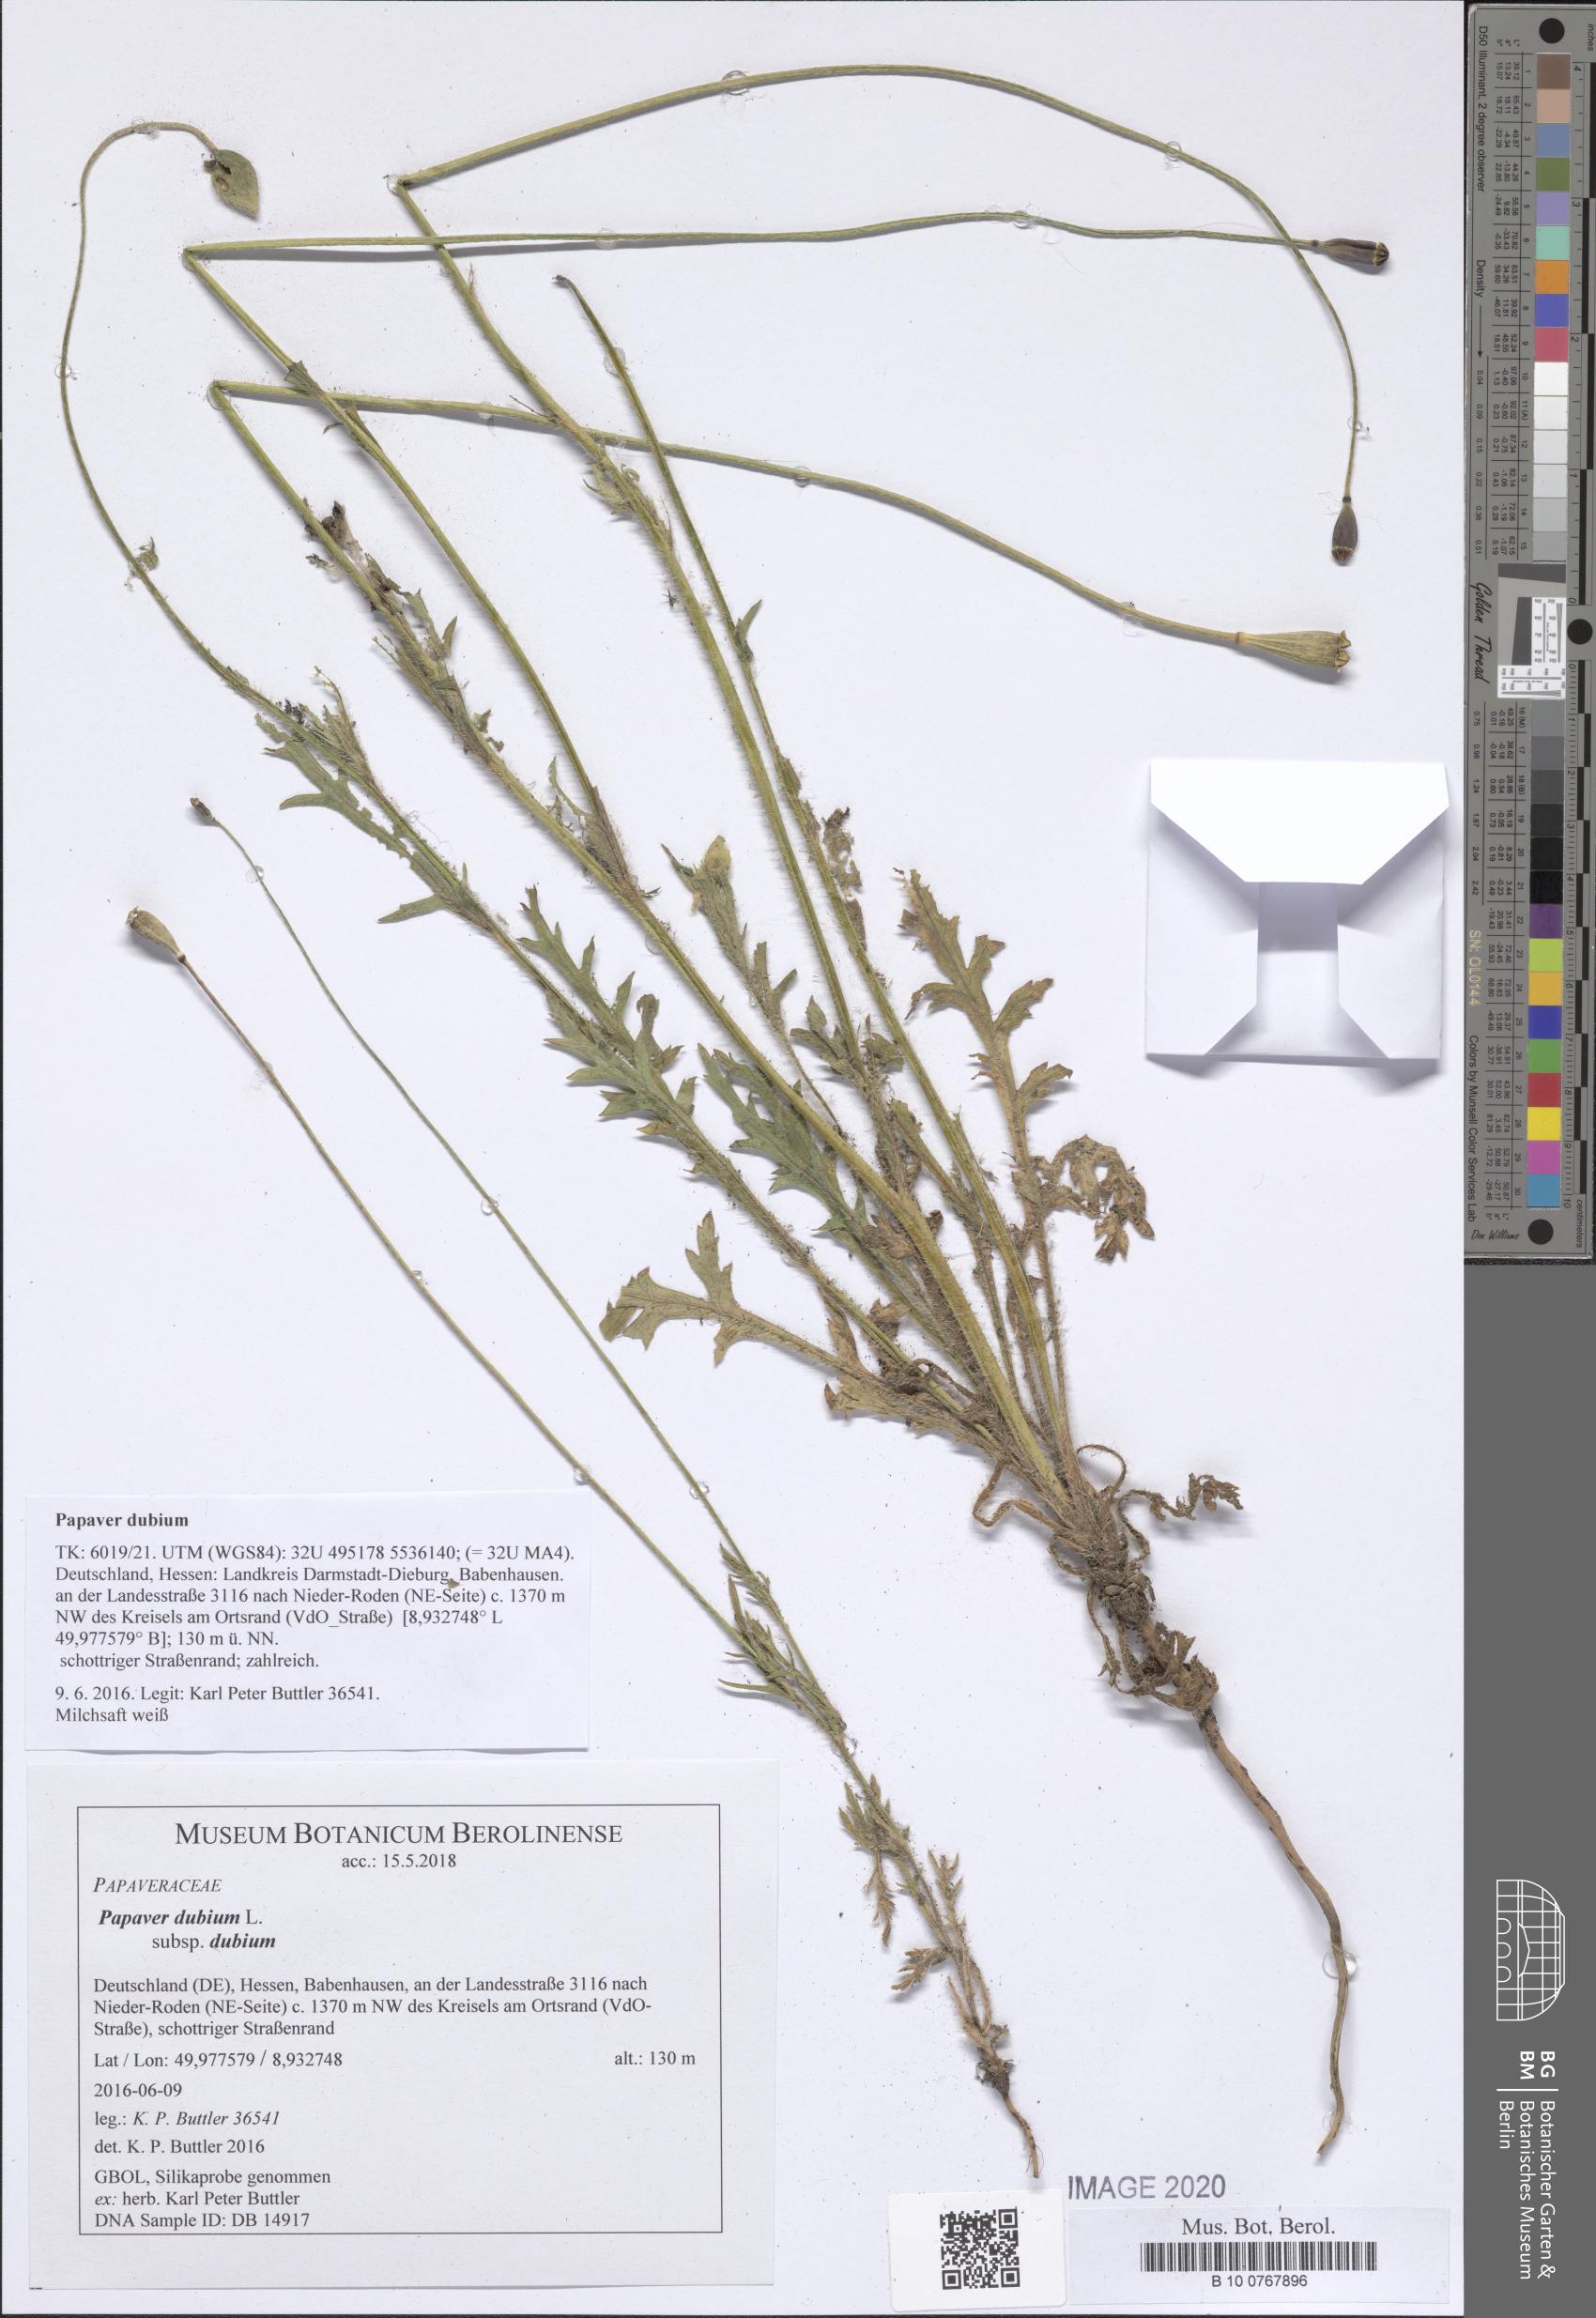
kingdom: Plantae
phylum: Tracheophyta
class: Magnoliopsida
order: Ranunculales
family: Papaveraceae
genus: Papaver
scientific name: Papaver dubium
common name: Long-headed poppy
